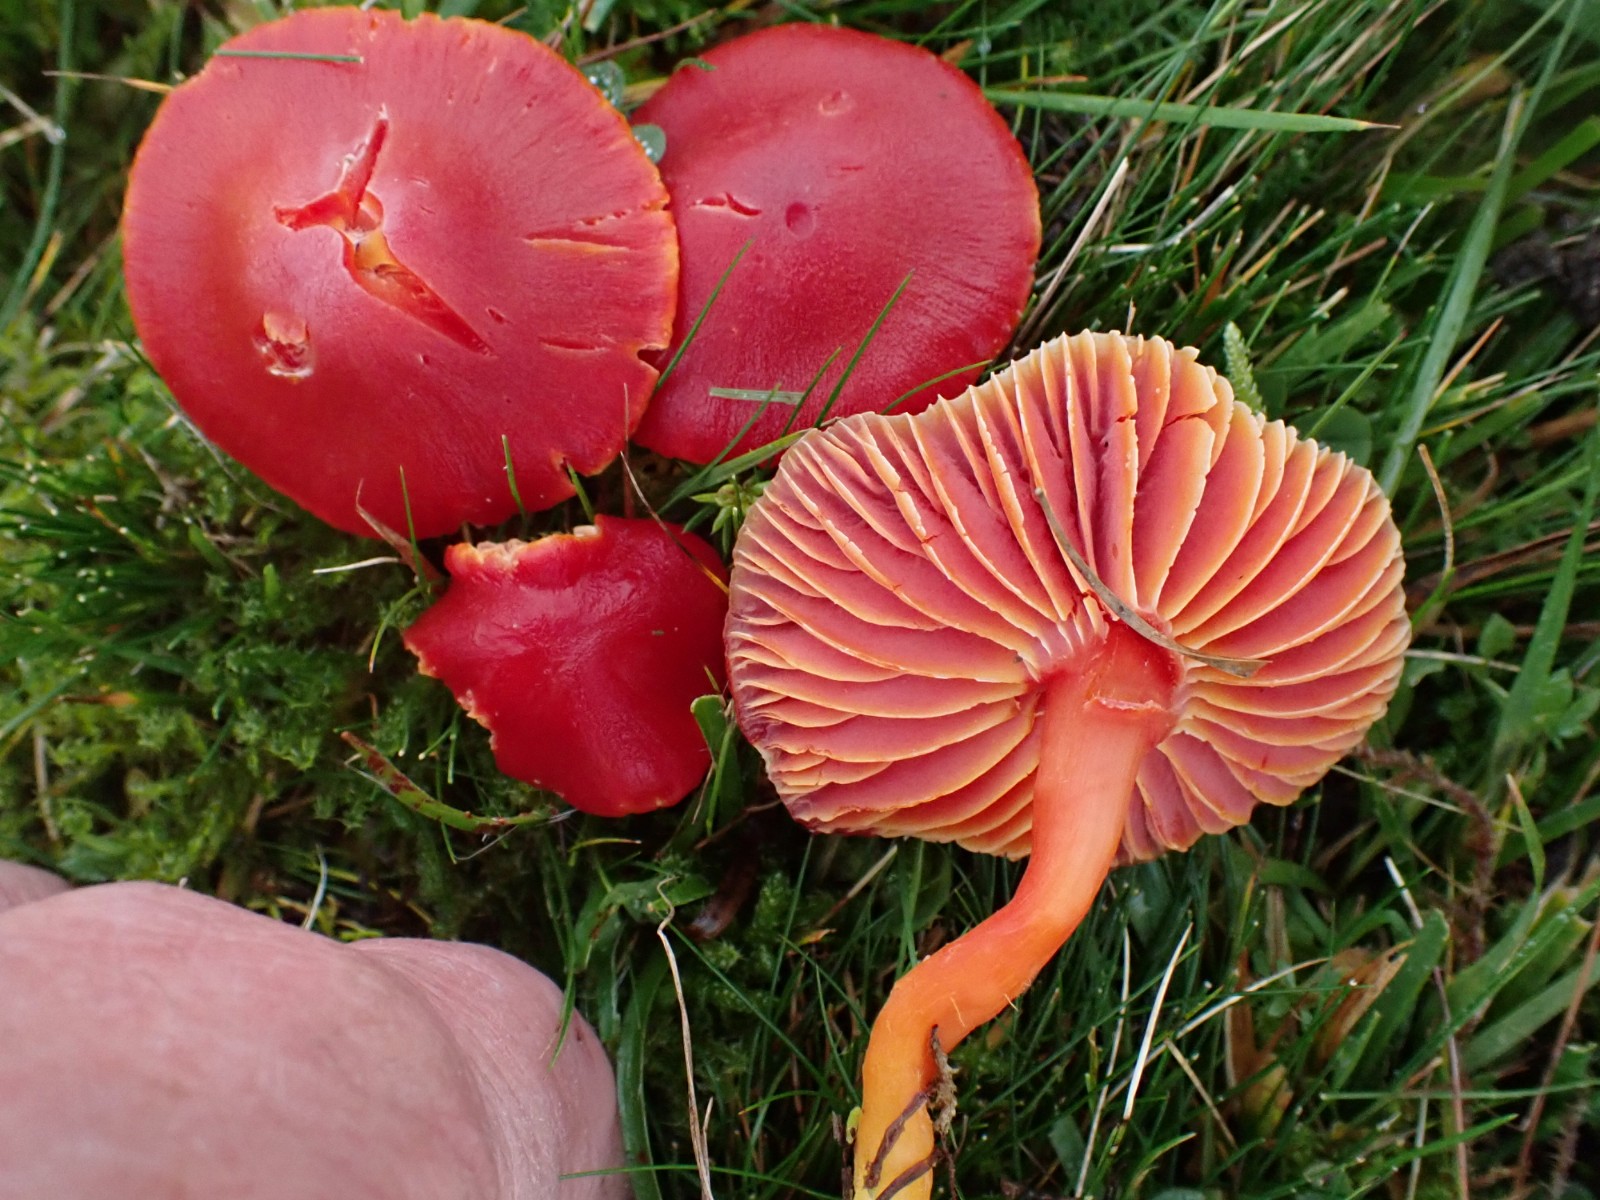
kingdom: Fungi
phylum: Basidiomycota
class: Agaricomycetes
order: Agaricales
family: Hygrophoraceae
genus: Hygrocybe
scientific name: Hygrocybe coccinea
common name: cinnober-vokshat
